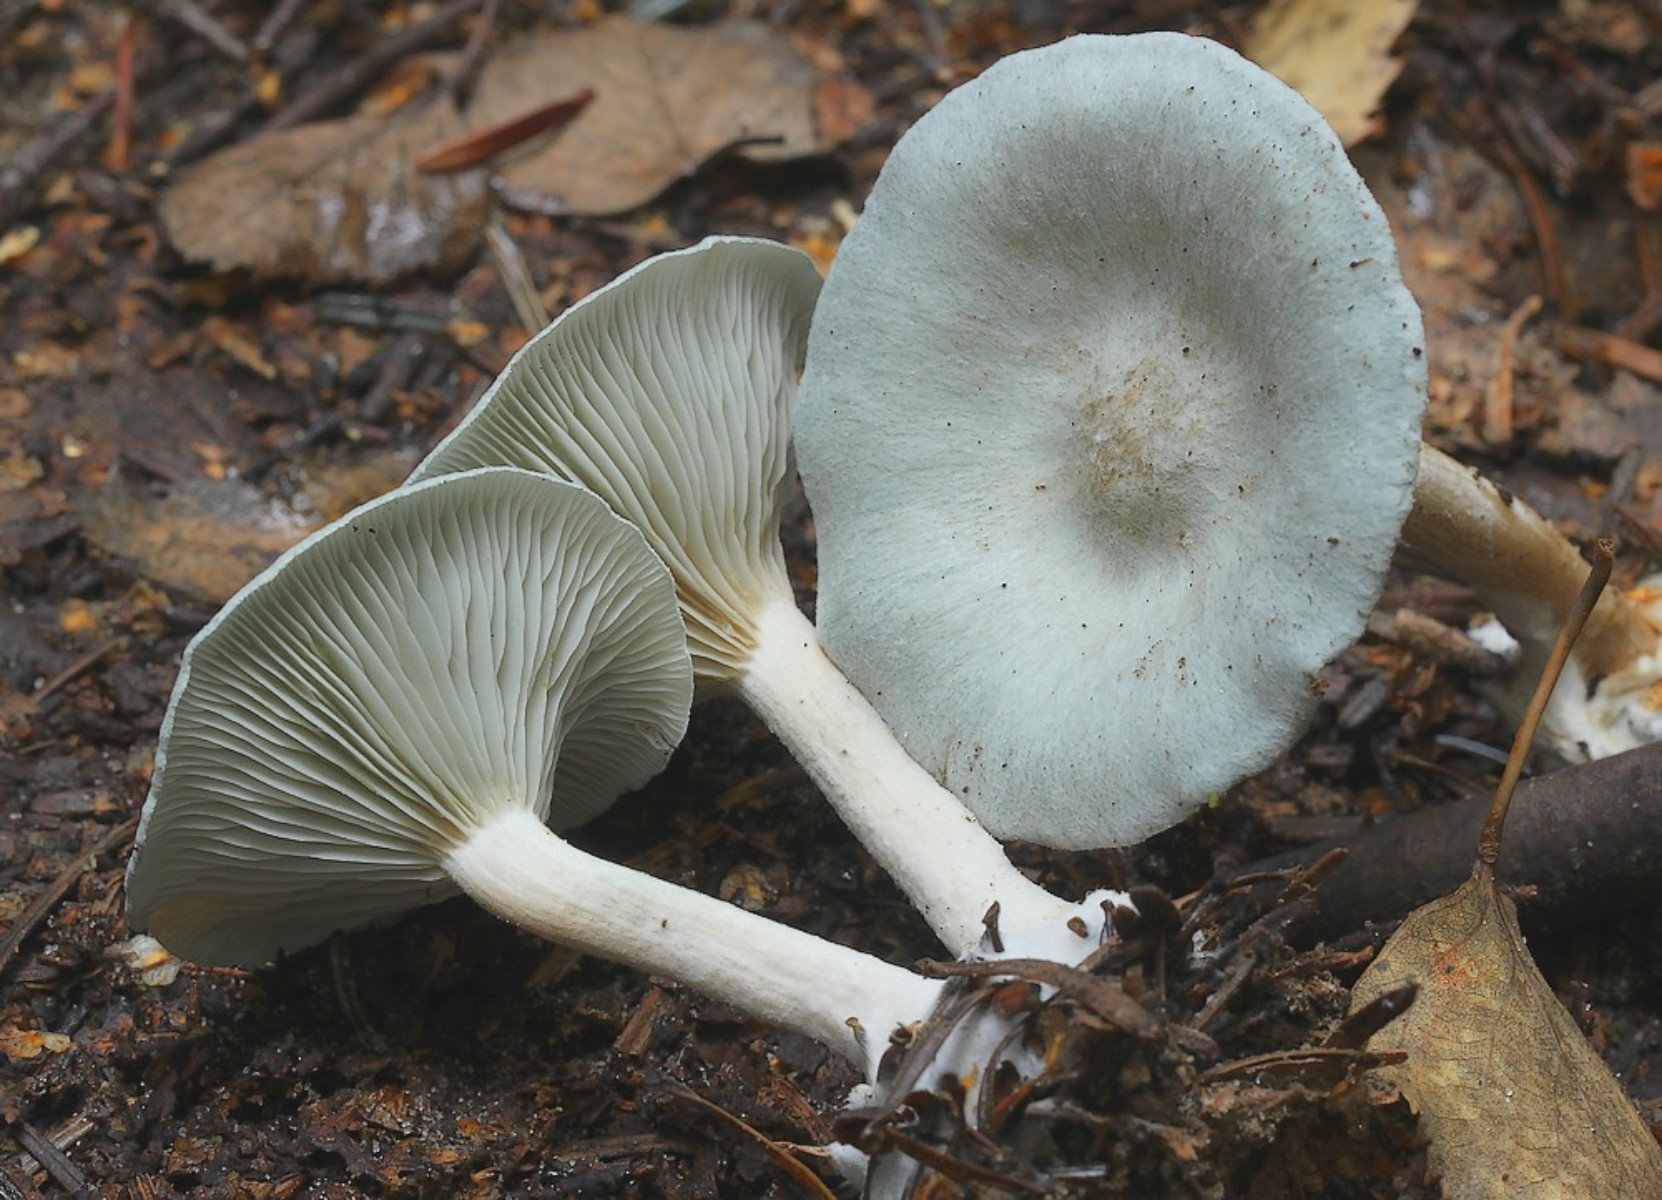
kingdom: Fungi
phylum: Basidiomycota
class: Agaricomycetes
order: Agaricales
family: Tricholomataceae
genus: Clitocybe
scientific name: Clitocybe odora
